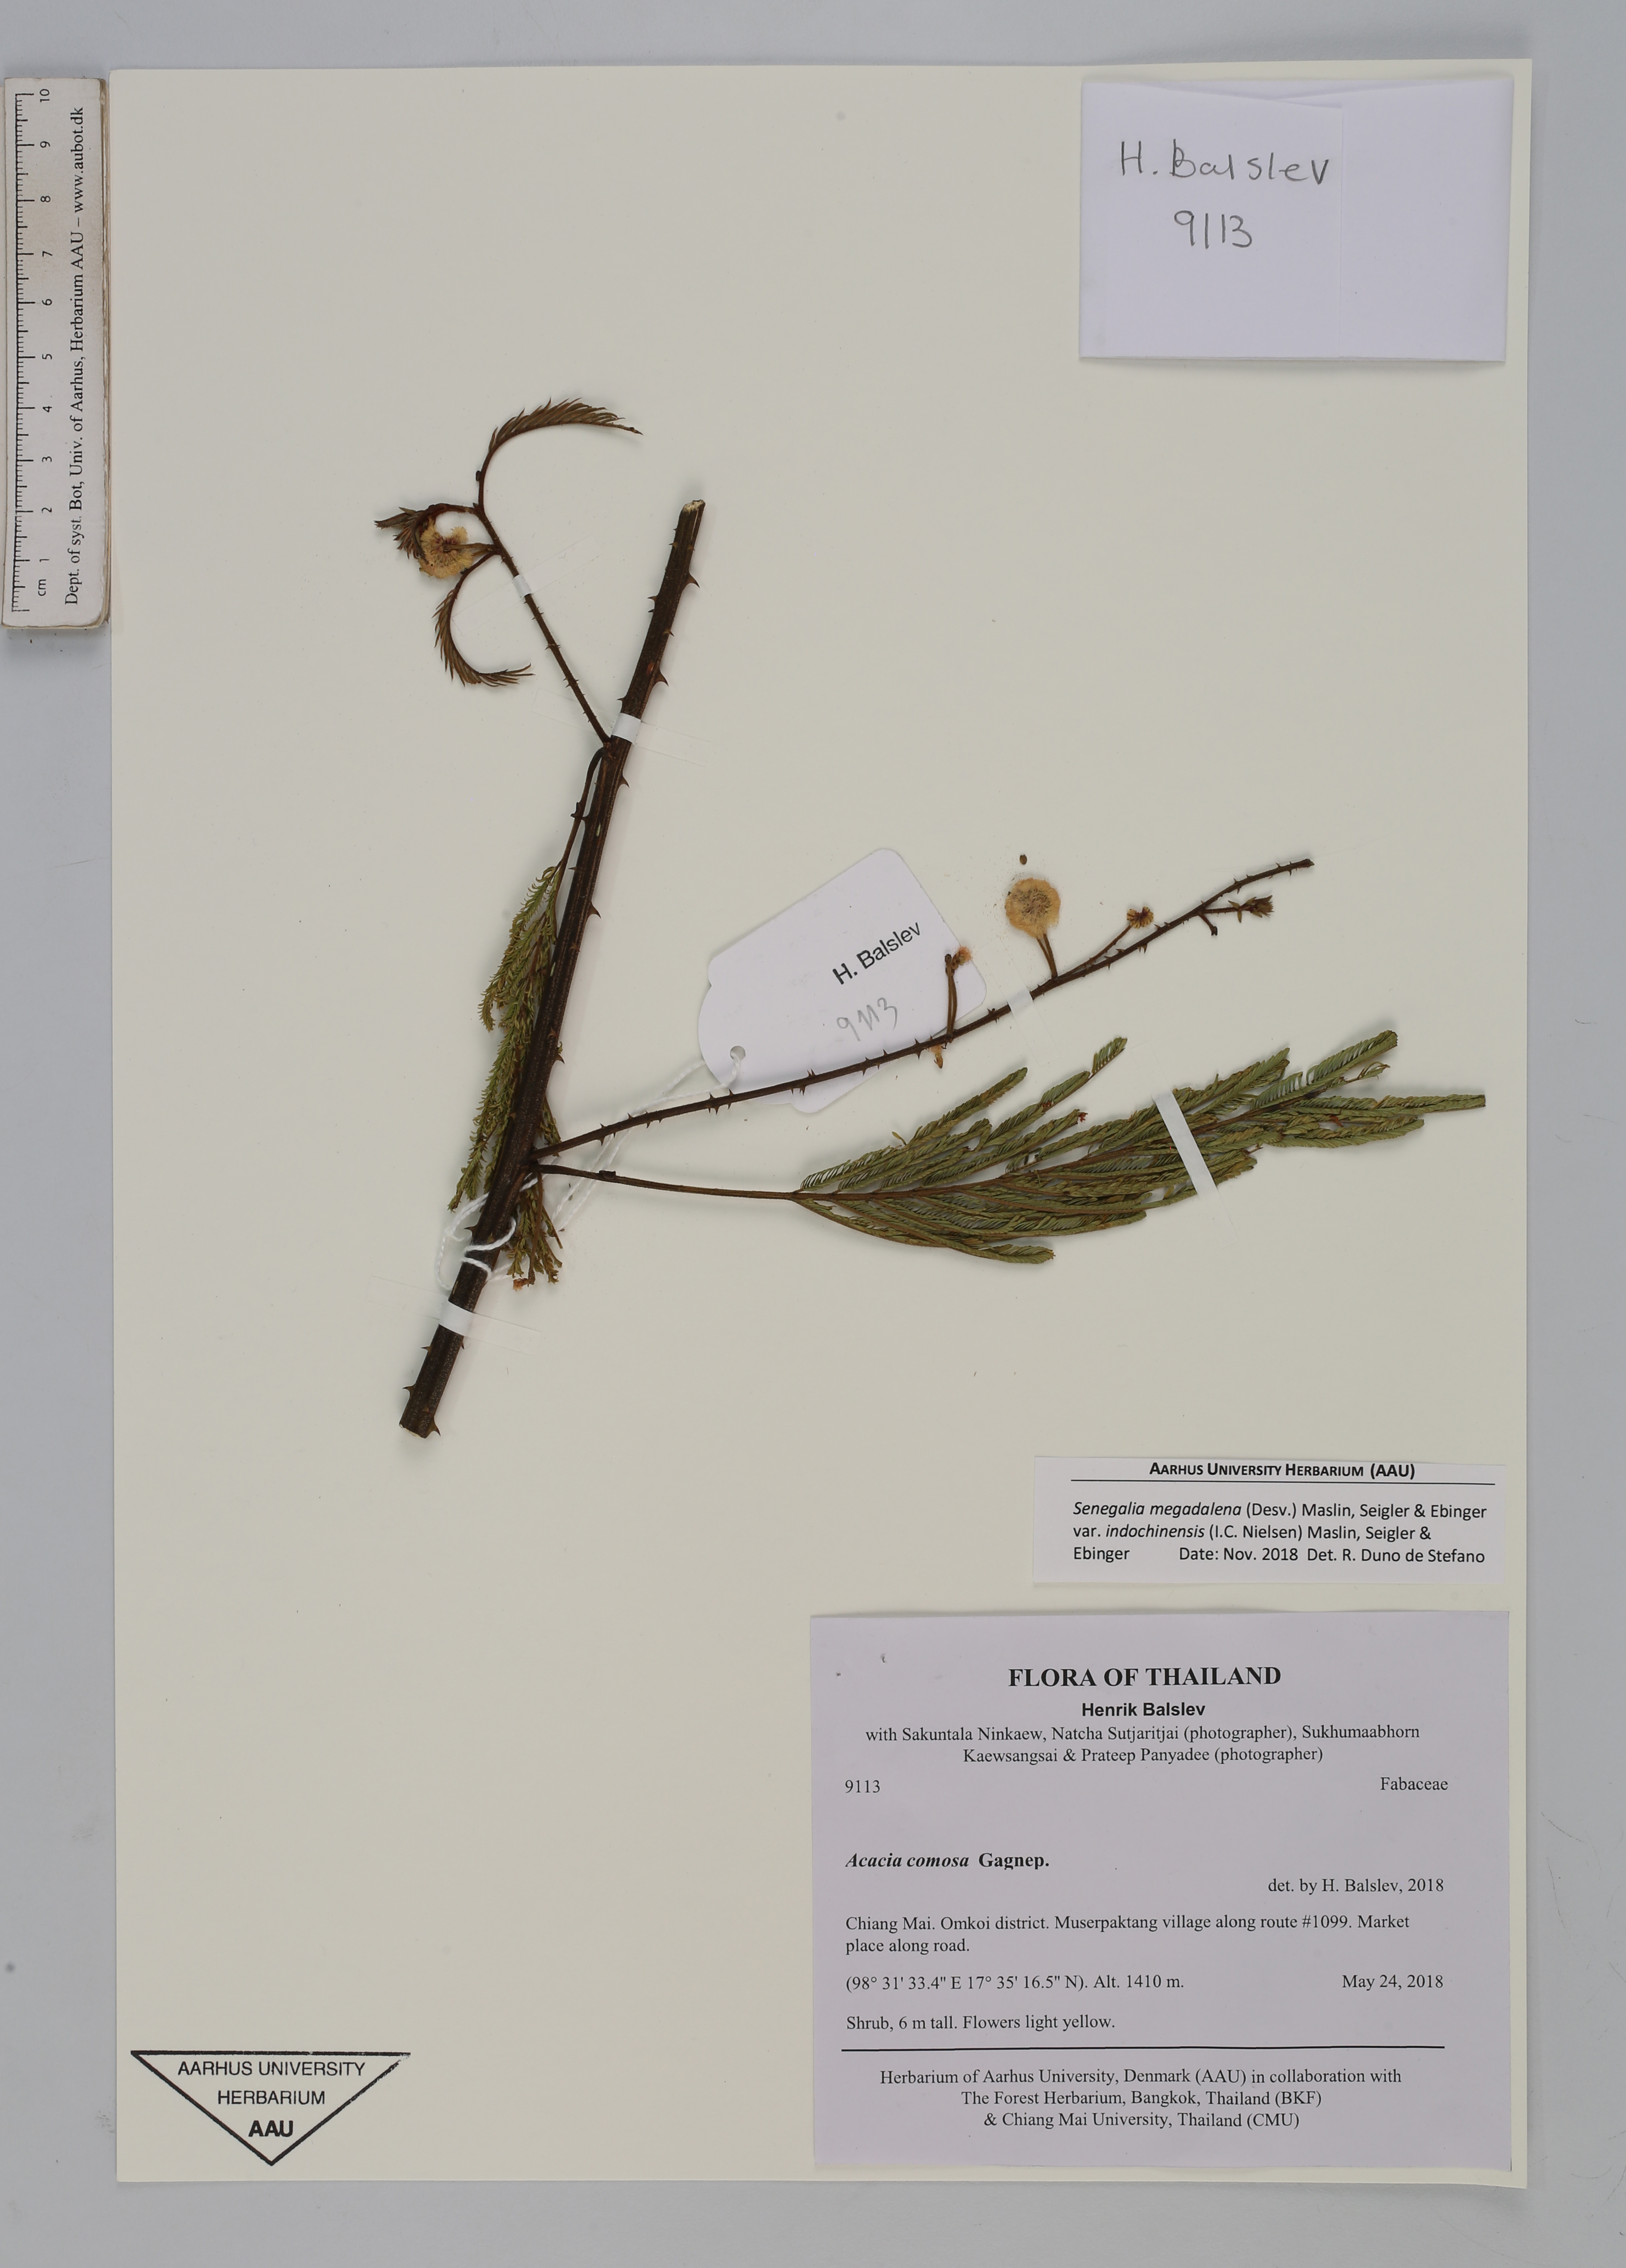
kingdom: Plantae
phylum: Tracheophyta
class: Magnoliopsida
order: Fabales
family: Fabaceae
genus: Senegalia
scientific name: Senegalia megaladena
